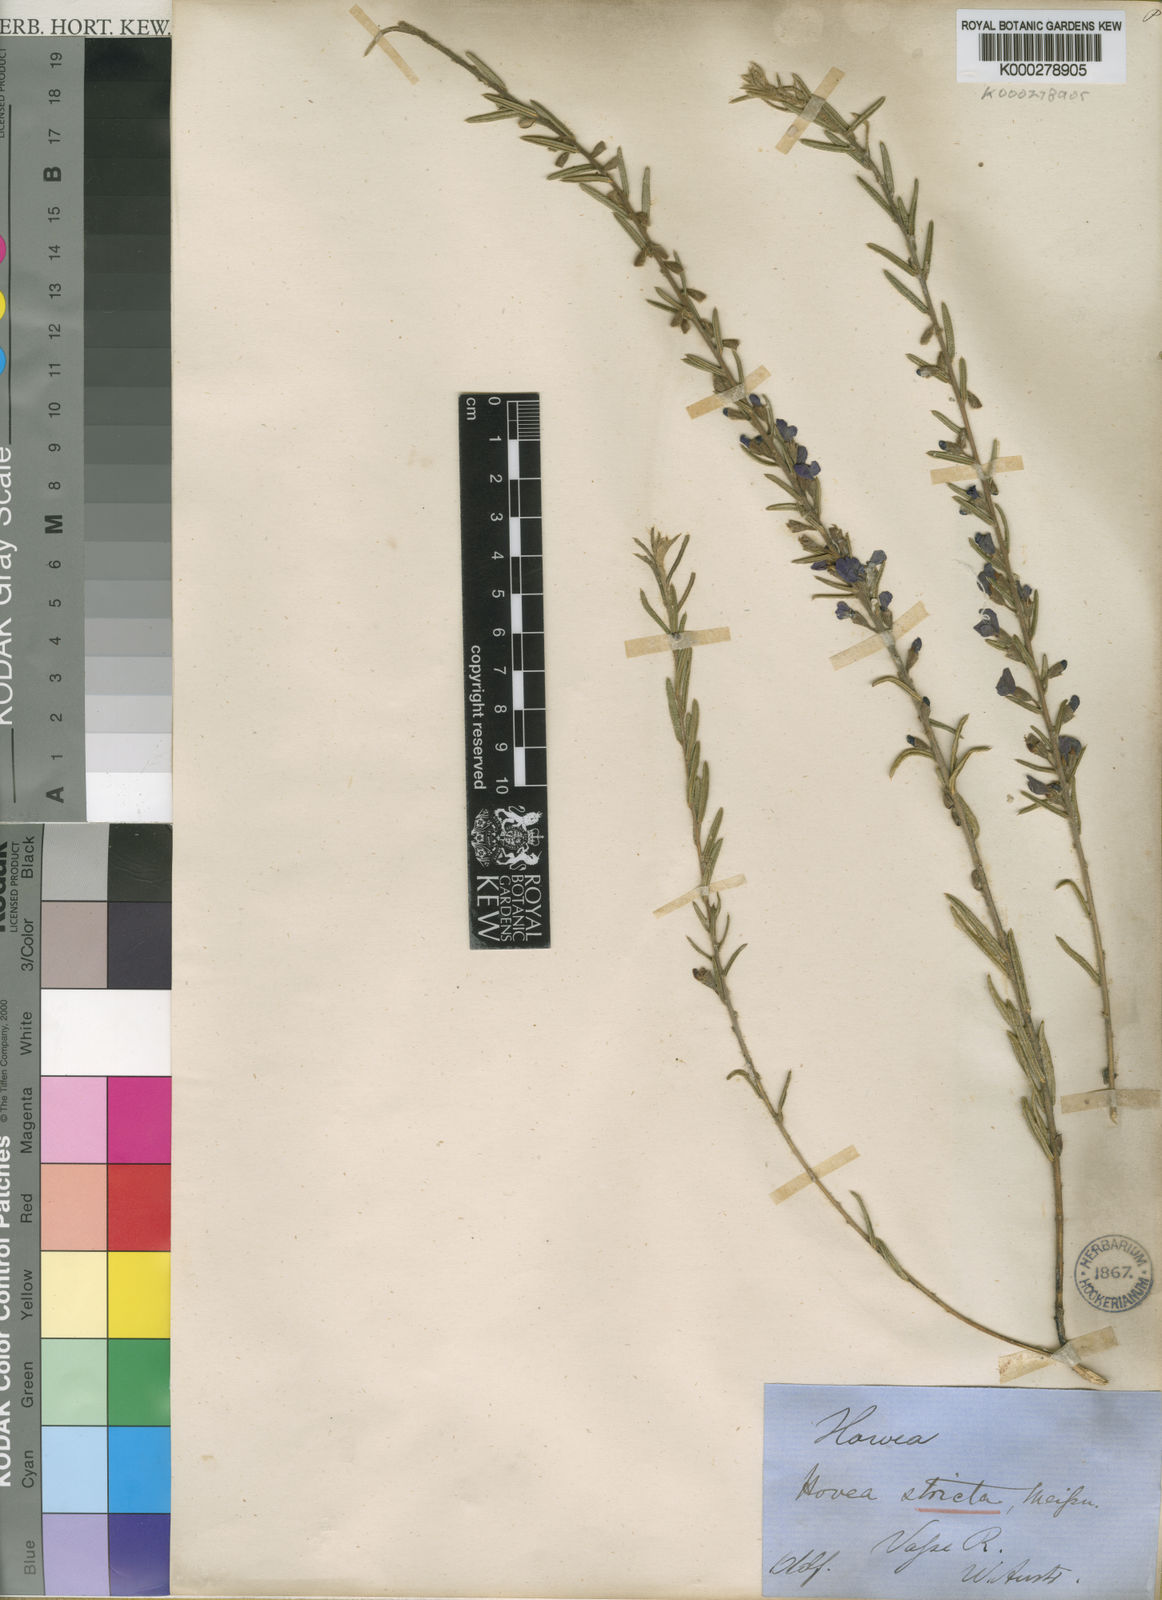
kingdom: Plantae
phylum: Tracheophyta
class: Magnoliopsida
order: Fabales
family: Fabaceae
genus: Hovea
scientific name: Hovea stricta
